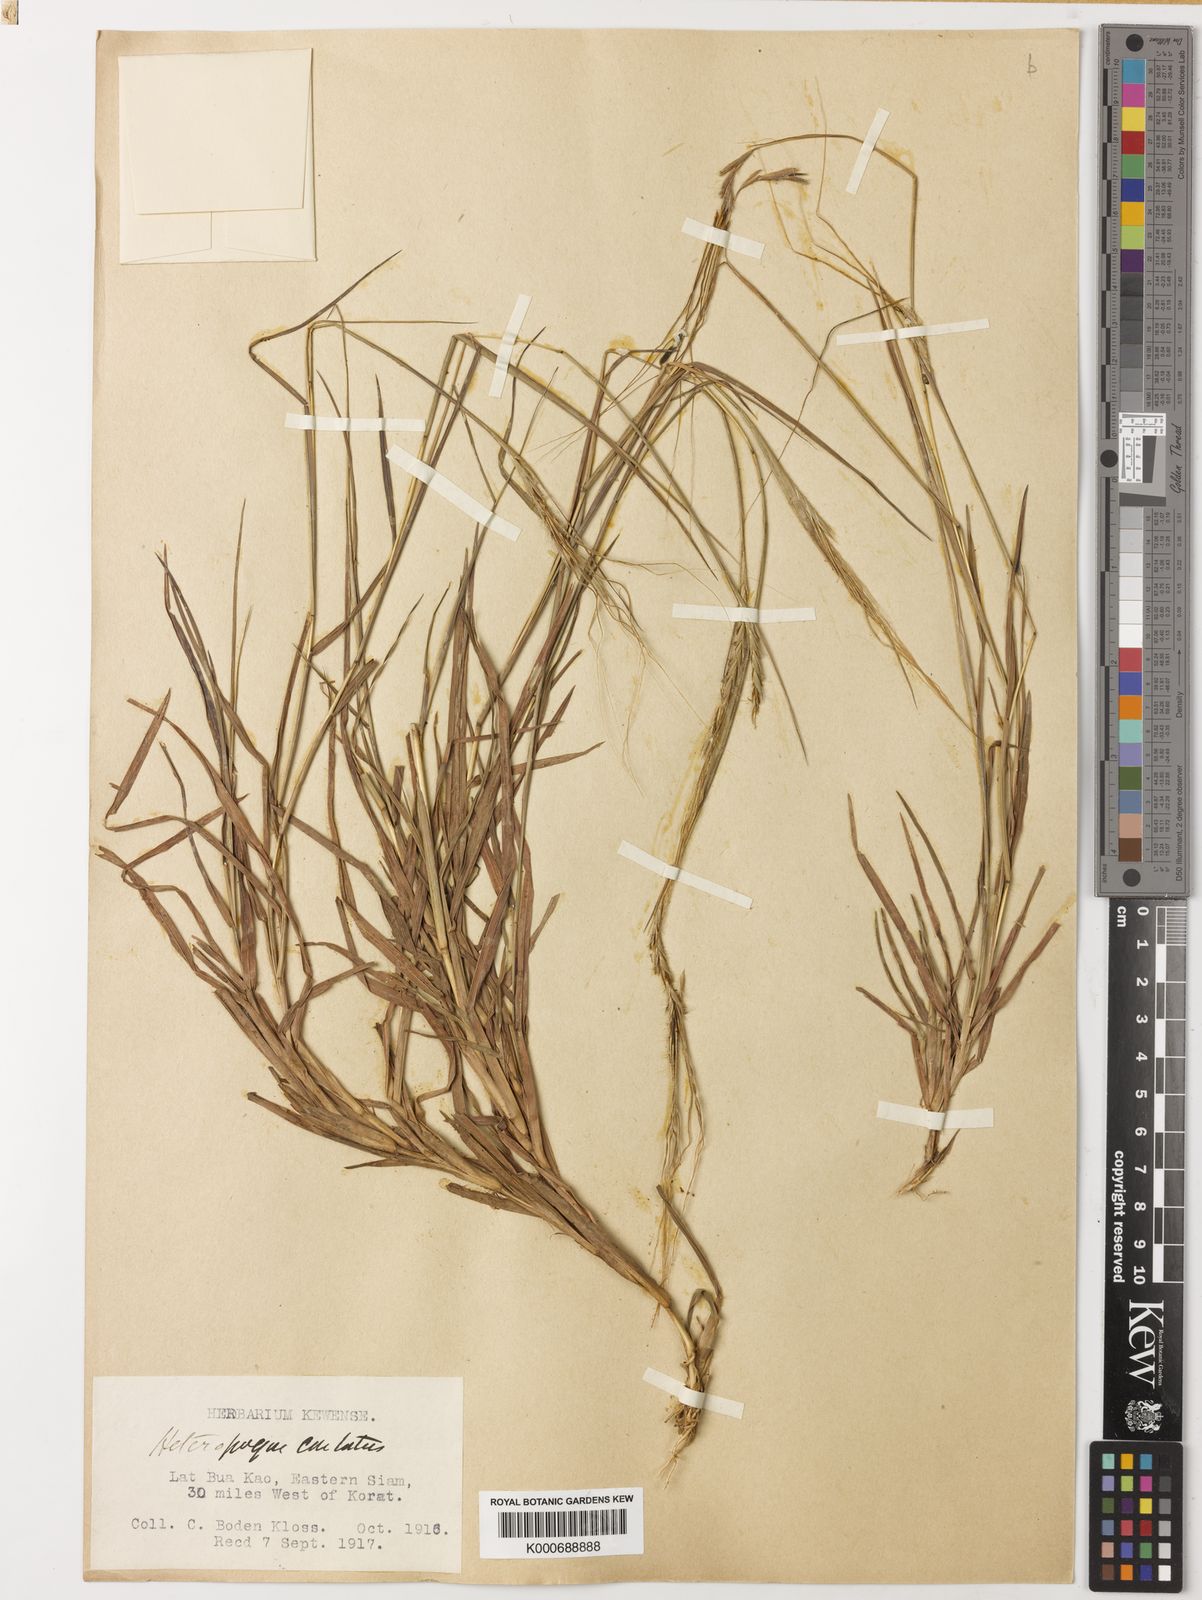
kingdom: Plantae
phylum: Tracheophyta
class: Liliopsida
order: Poales
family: Poaceae
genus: Heteropogon
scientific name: Heteropogon contortus
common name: Tanglehead
